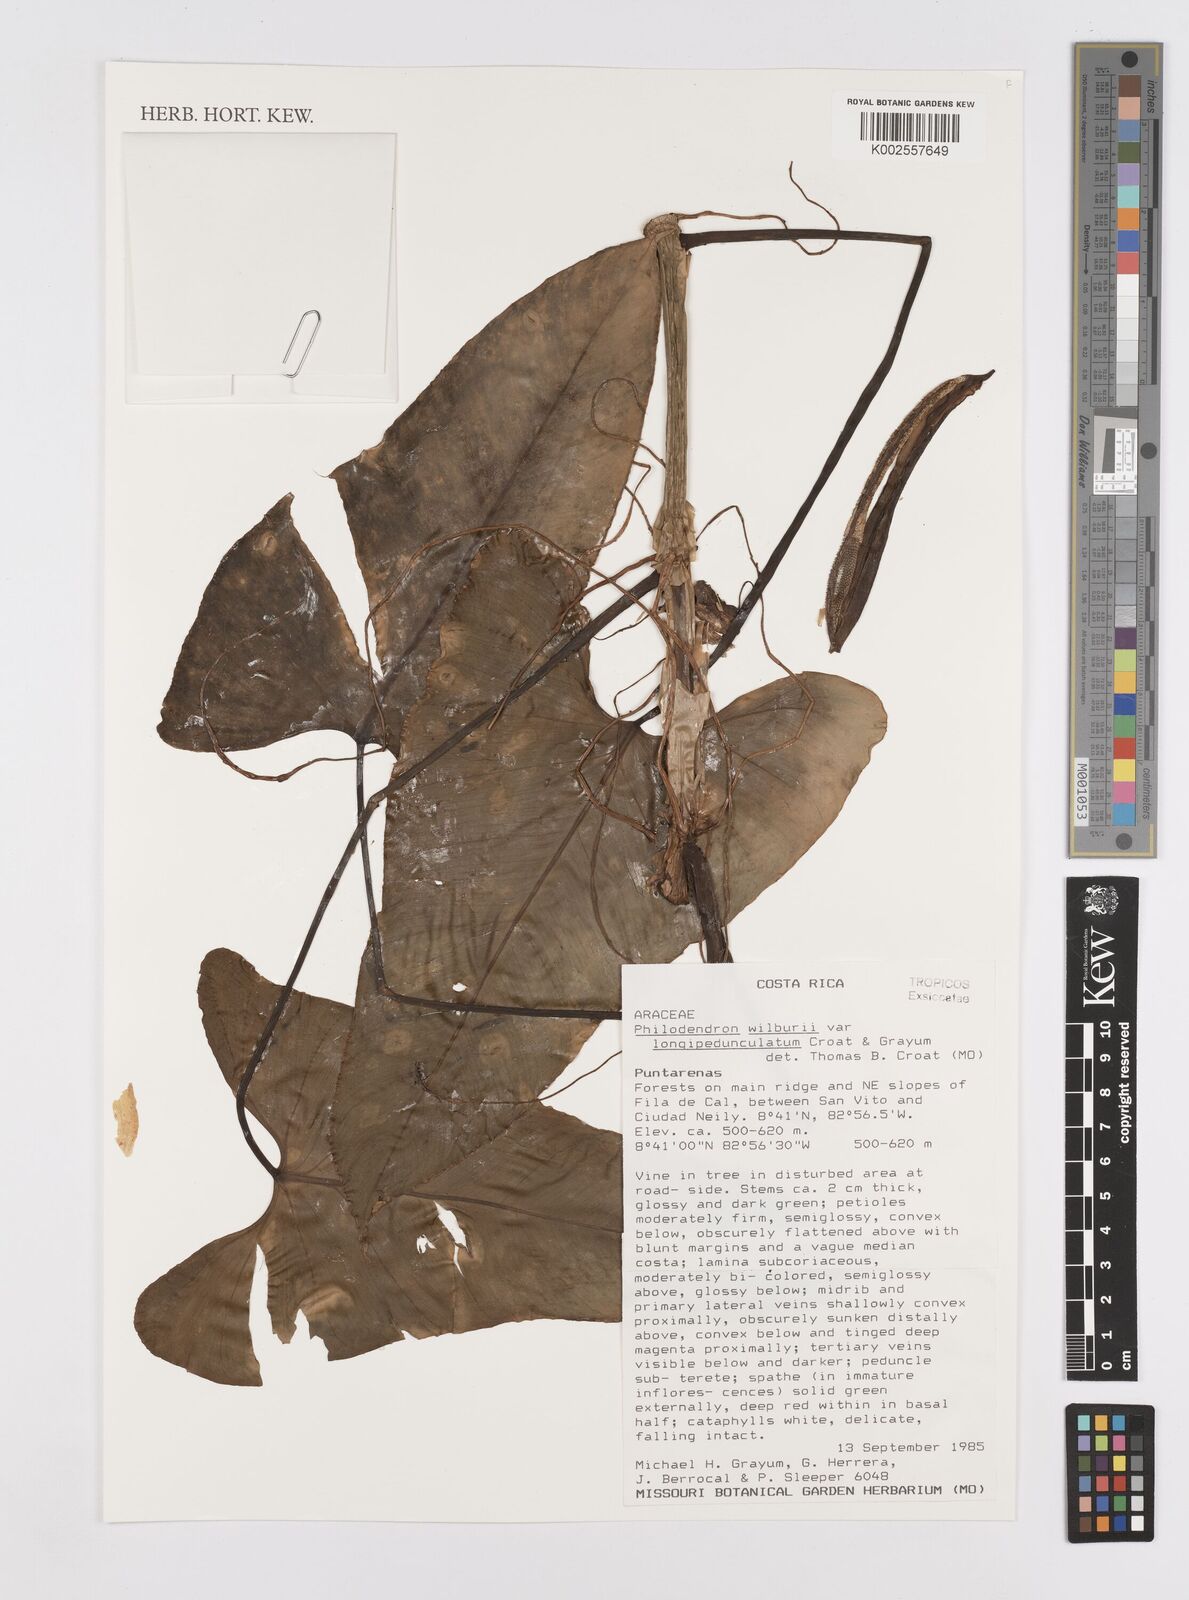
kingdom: Plantae
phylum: Tracheophyta
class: Liliopsida
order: Alismatales
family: Araceae
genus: Philodendron
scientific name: Philodendron wilburii
